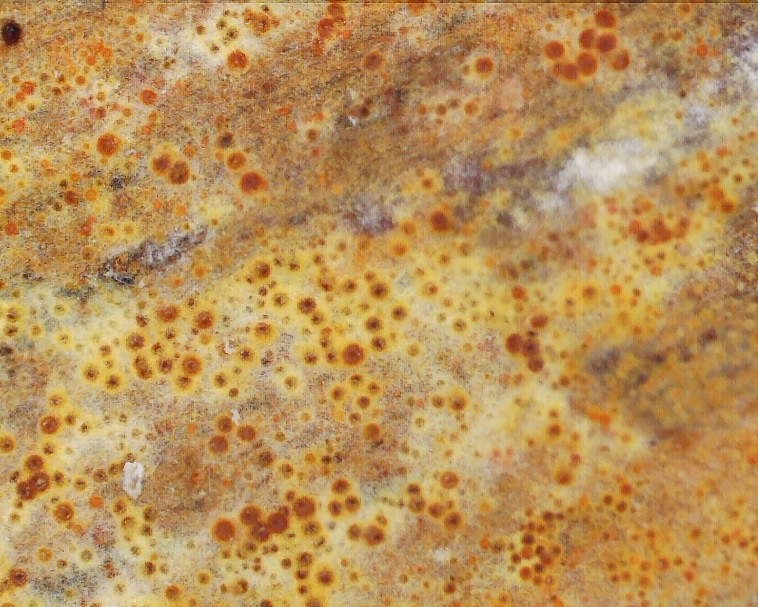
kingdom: Fungi
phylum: Ascomycota
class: Sordariomycetes
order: Hypocreales
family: Nectriaceae
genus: Chrysonectria
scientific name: Chrysonectria finisterrensis
